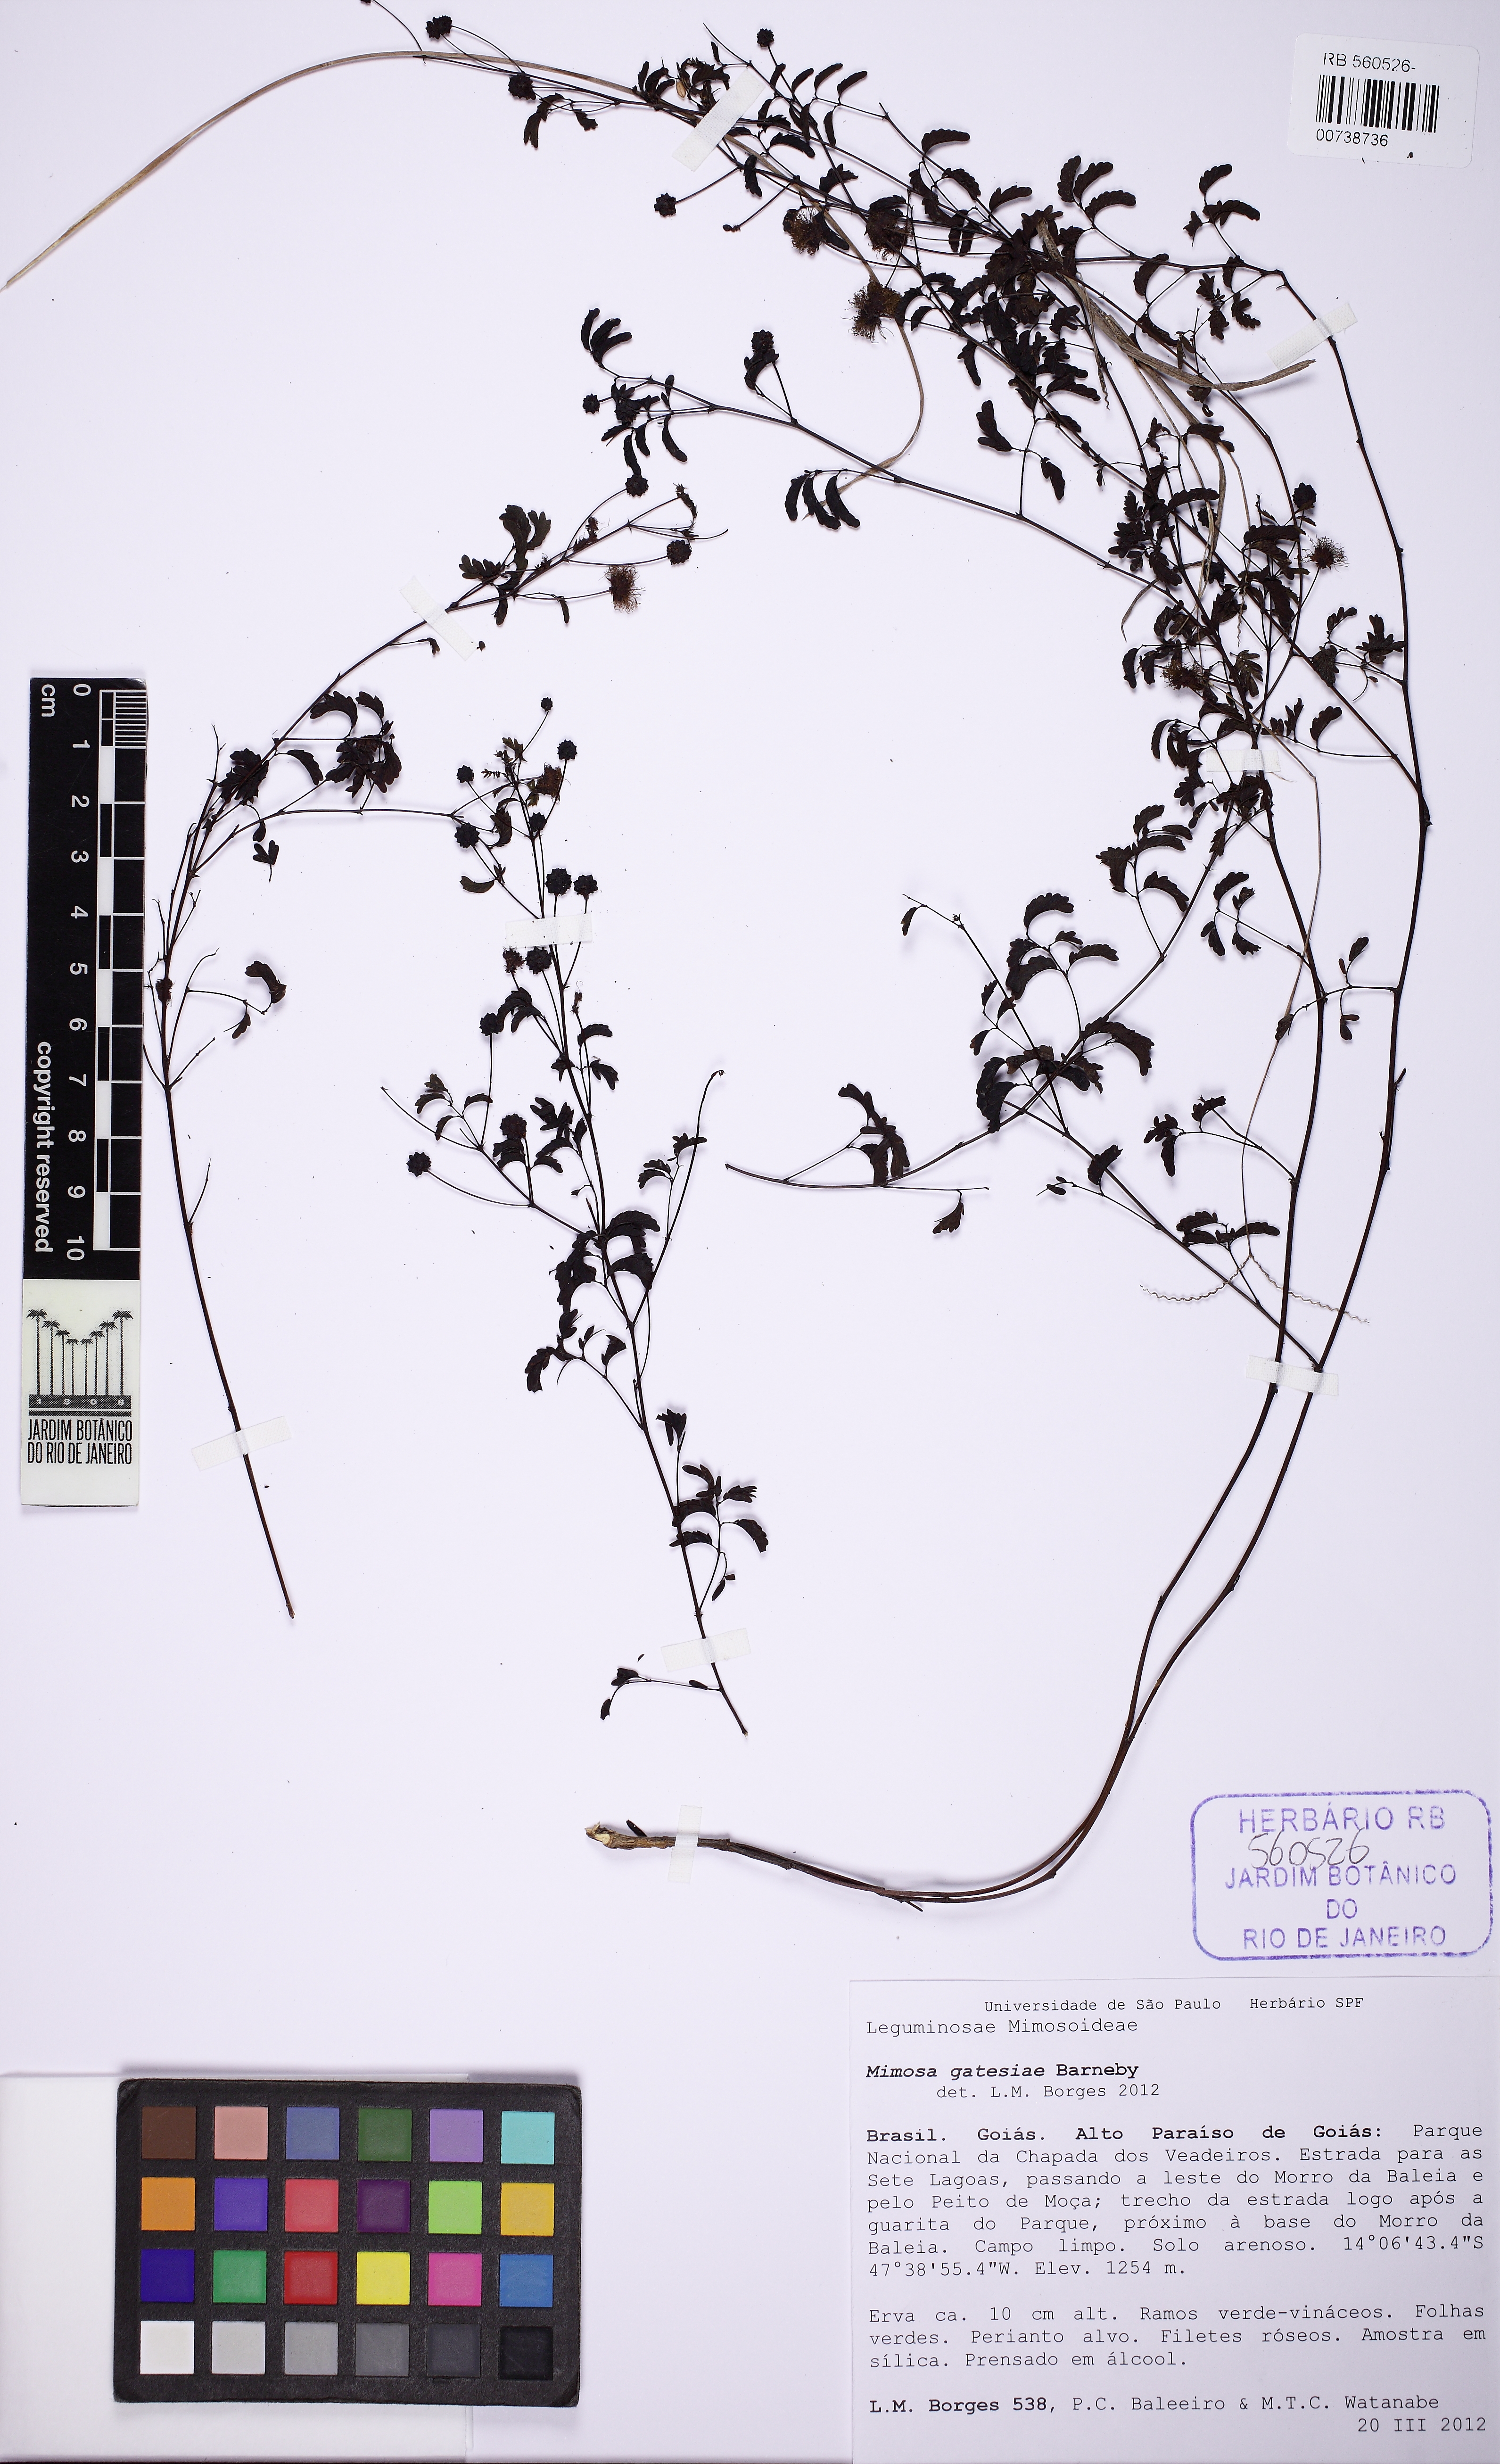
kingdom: Plantae
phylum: Tracheophyta
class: Magnoliopsida
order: Fabales
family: Fabaceae
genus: Mimosa
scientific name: Mimosa gatesiae
